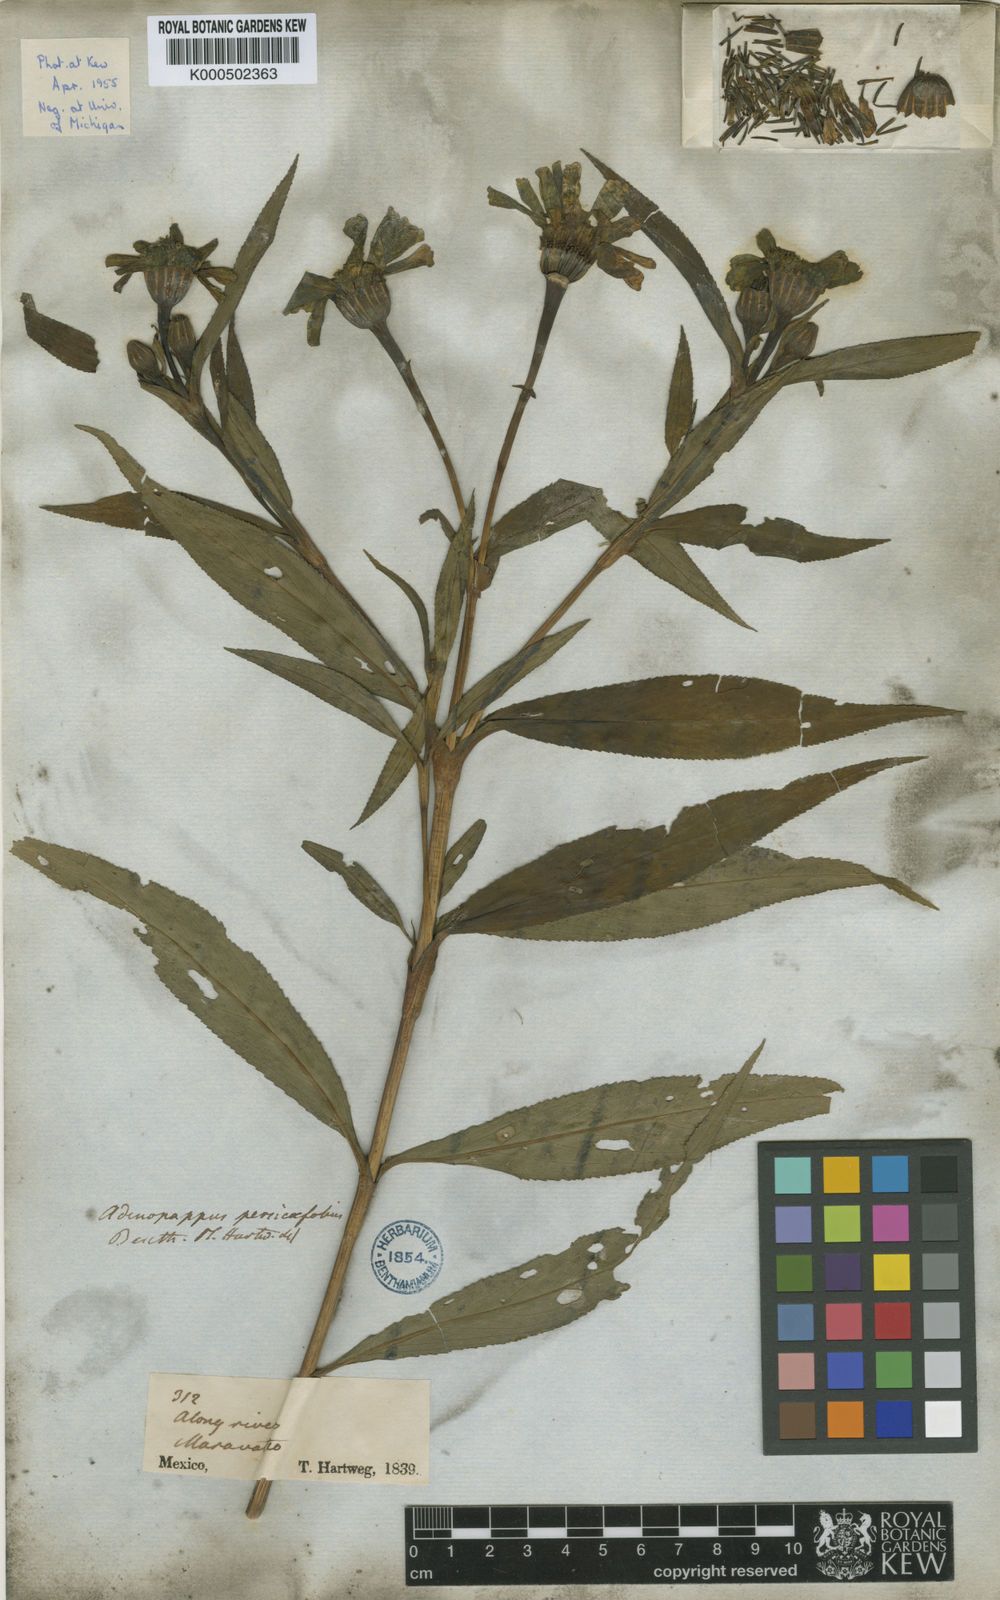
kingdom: Plantae
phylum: Tracheophyta
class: Magnoliopsida
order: Asterales
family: Asteraceae
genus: Tagetes
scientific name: Tagetes persicifolia
